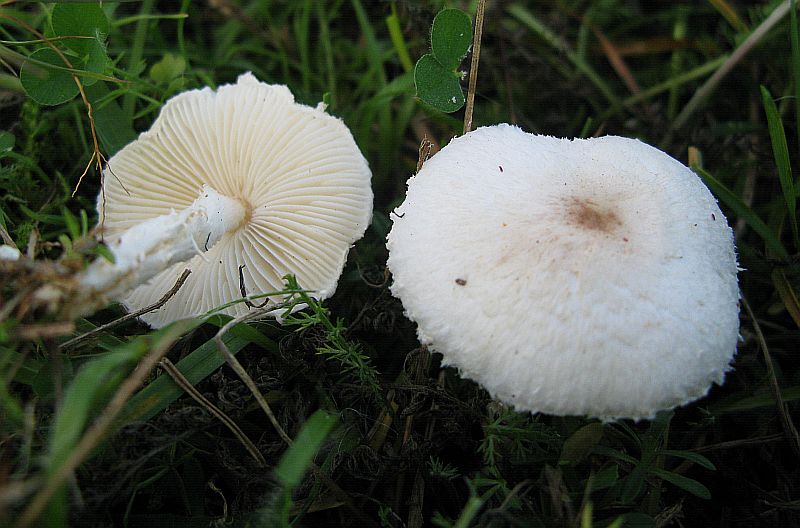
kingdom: Fungi
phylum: Basidiomycota
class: Agaricomycetes
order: Agaricales
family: Agaricaceae
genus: Lepiota
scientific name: Lepiota subalba
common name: hvidlig parasolhat
